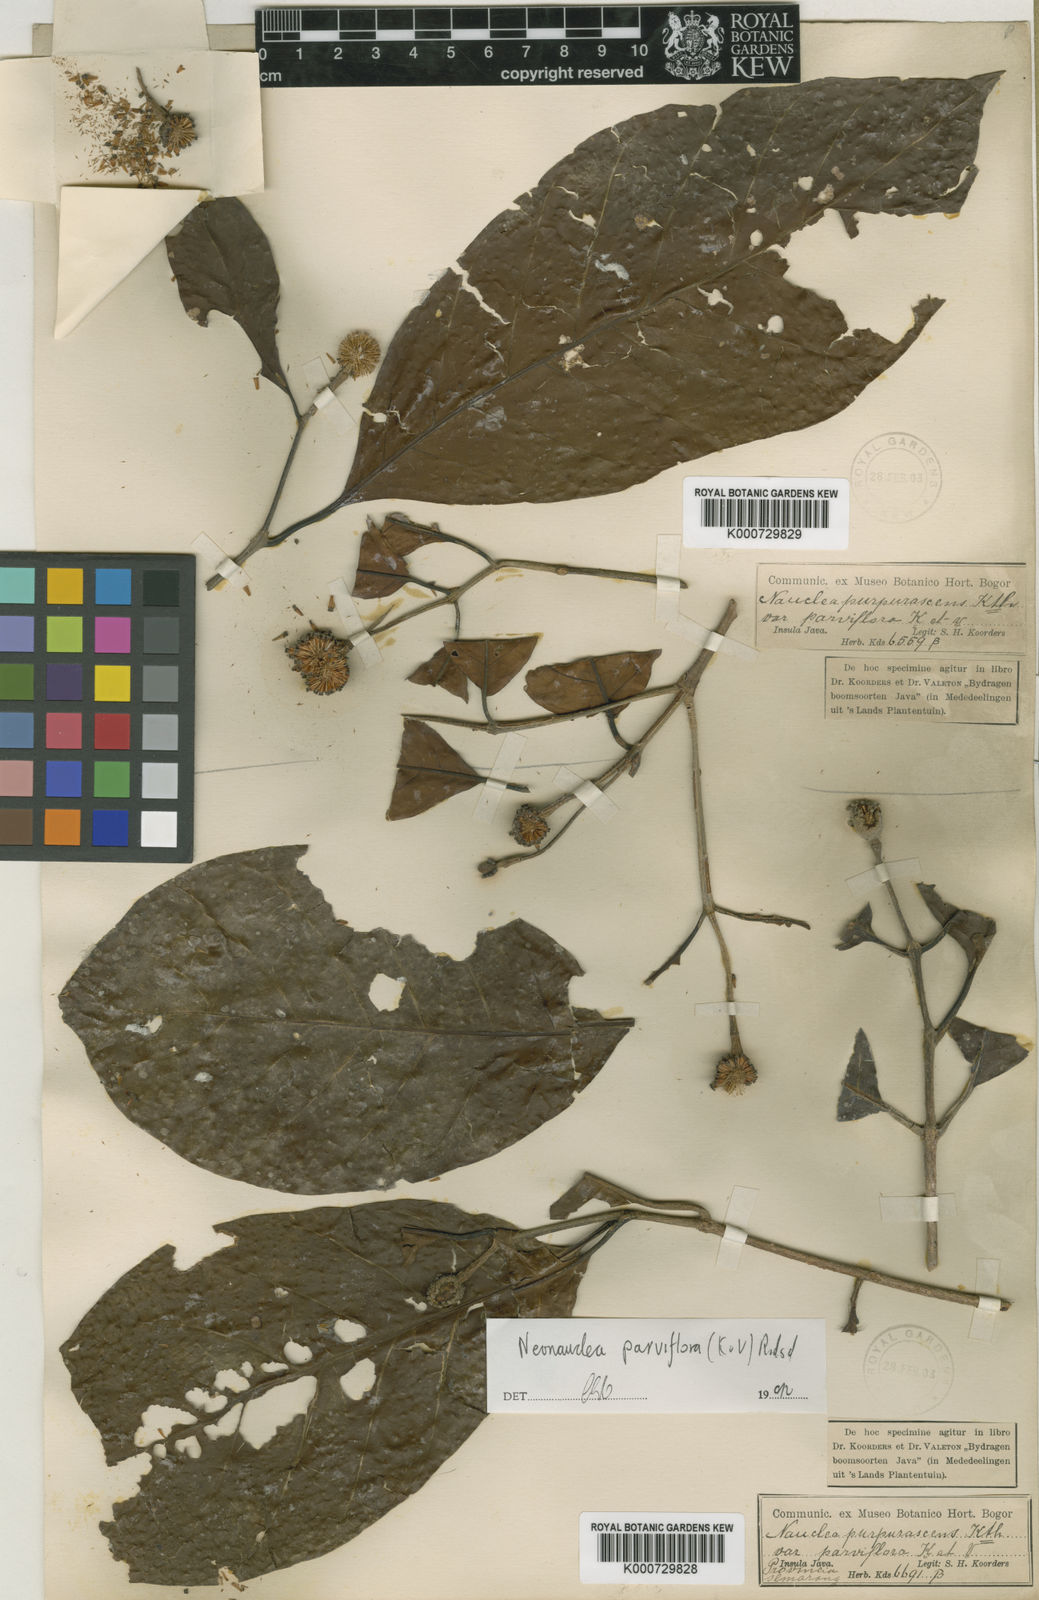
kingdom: Plantae
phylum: Tracheophyta
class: Magnoliopsida
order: Gentianales
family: Rubiaceae
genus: Neonauclea
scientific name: Neonauclea
